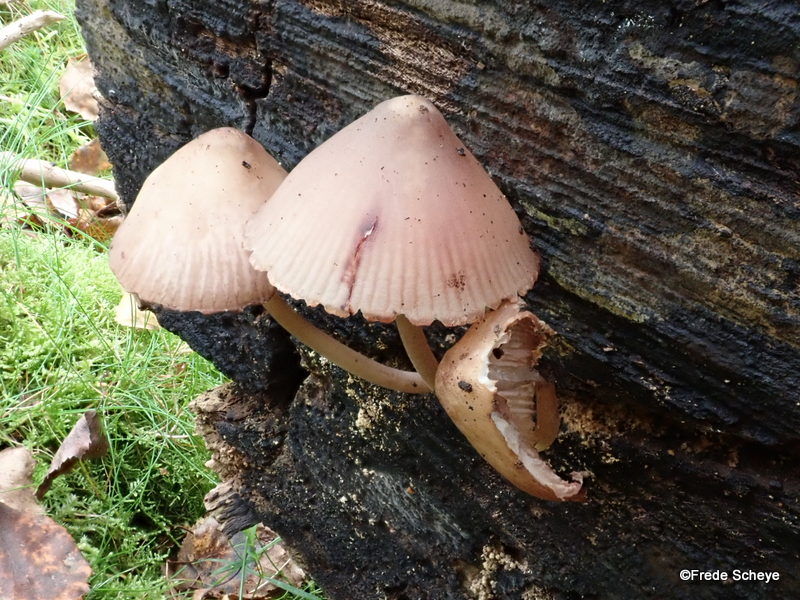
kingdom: Fungi
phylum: Basidiomycota
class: Agaricomycetes
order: Agaricales
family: Mycenaceae
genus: Mycena
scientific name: Mycena haematopus
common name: blødende huesvamp
